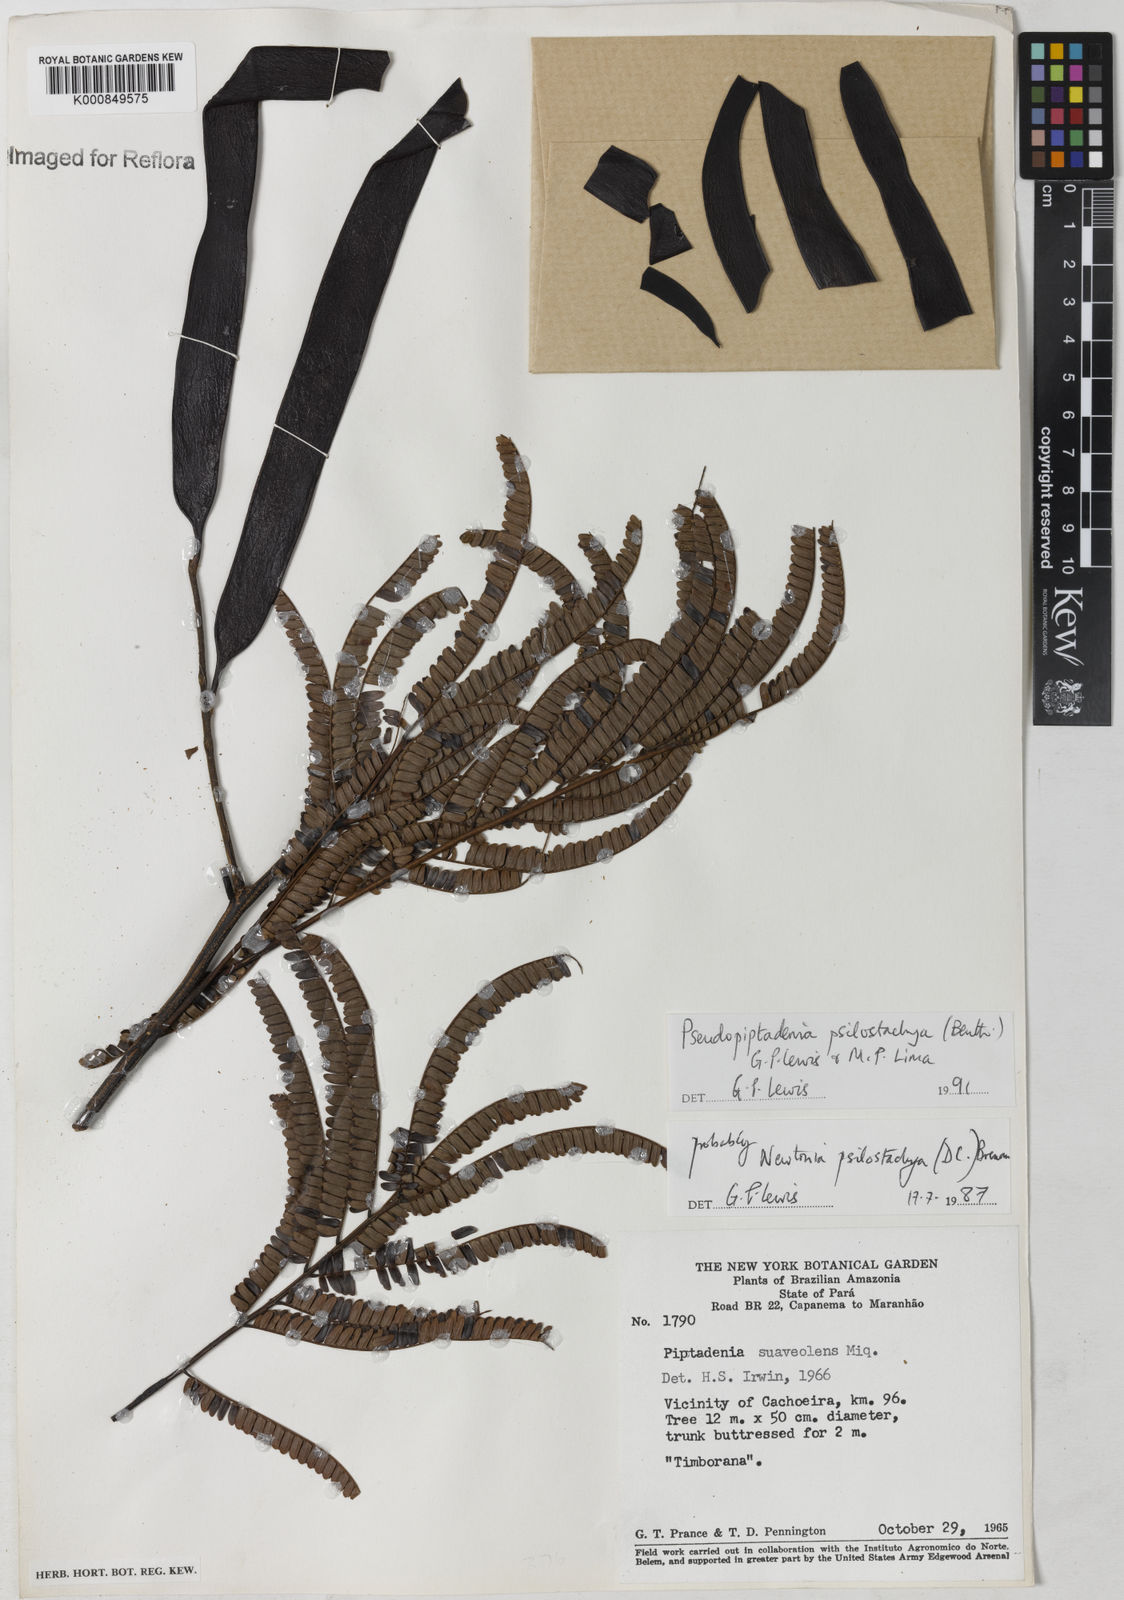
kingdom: Plantae
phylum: Tracheophyta
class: Magnoliopsida
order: Fabales
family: Fabaceae
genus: Pseudopiptadenia
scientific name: Pseudopiptadenia psilostachya
